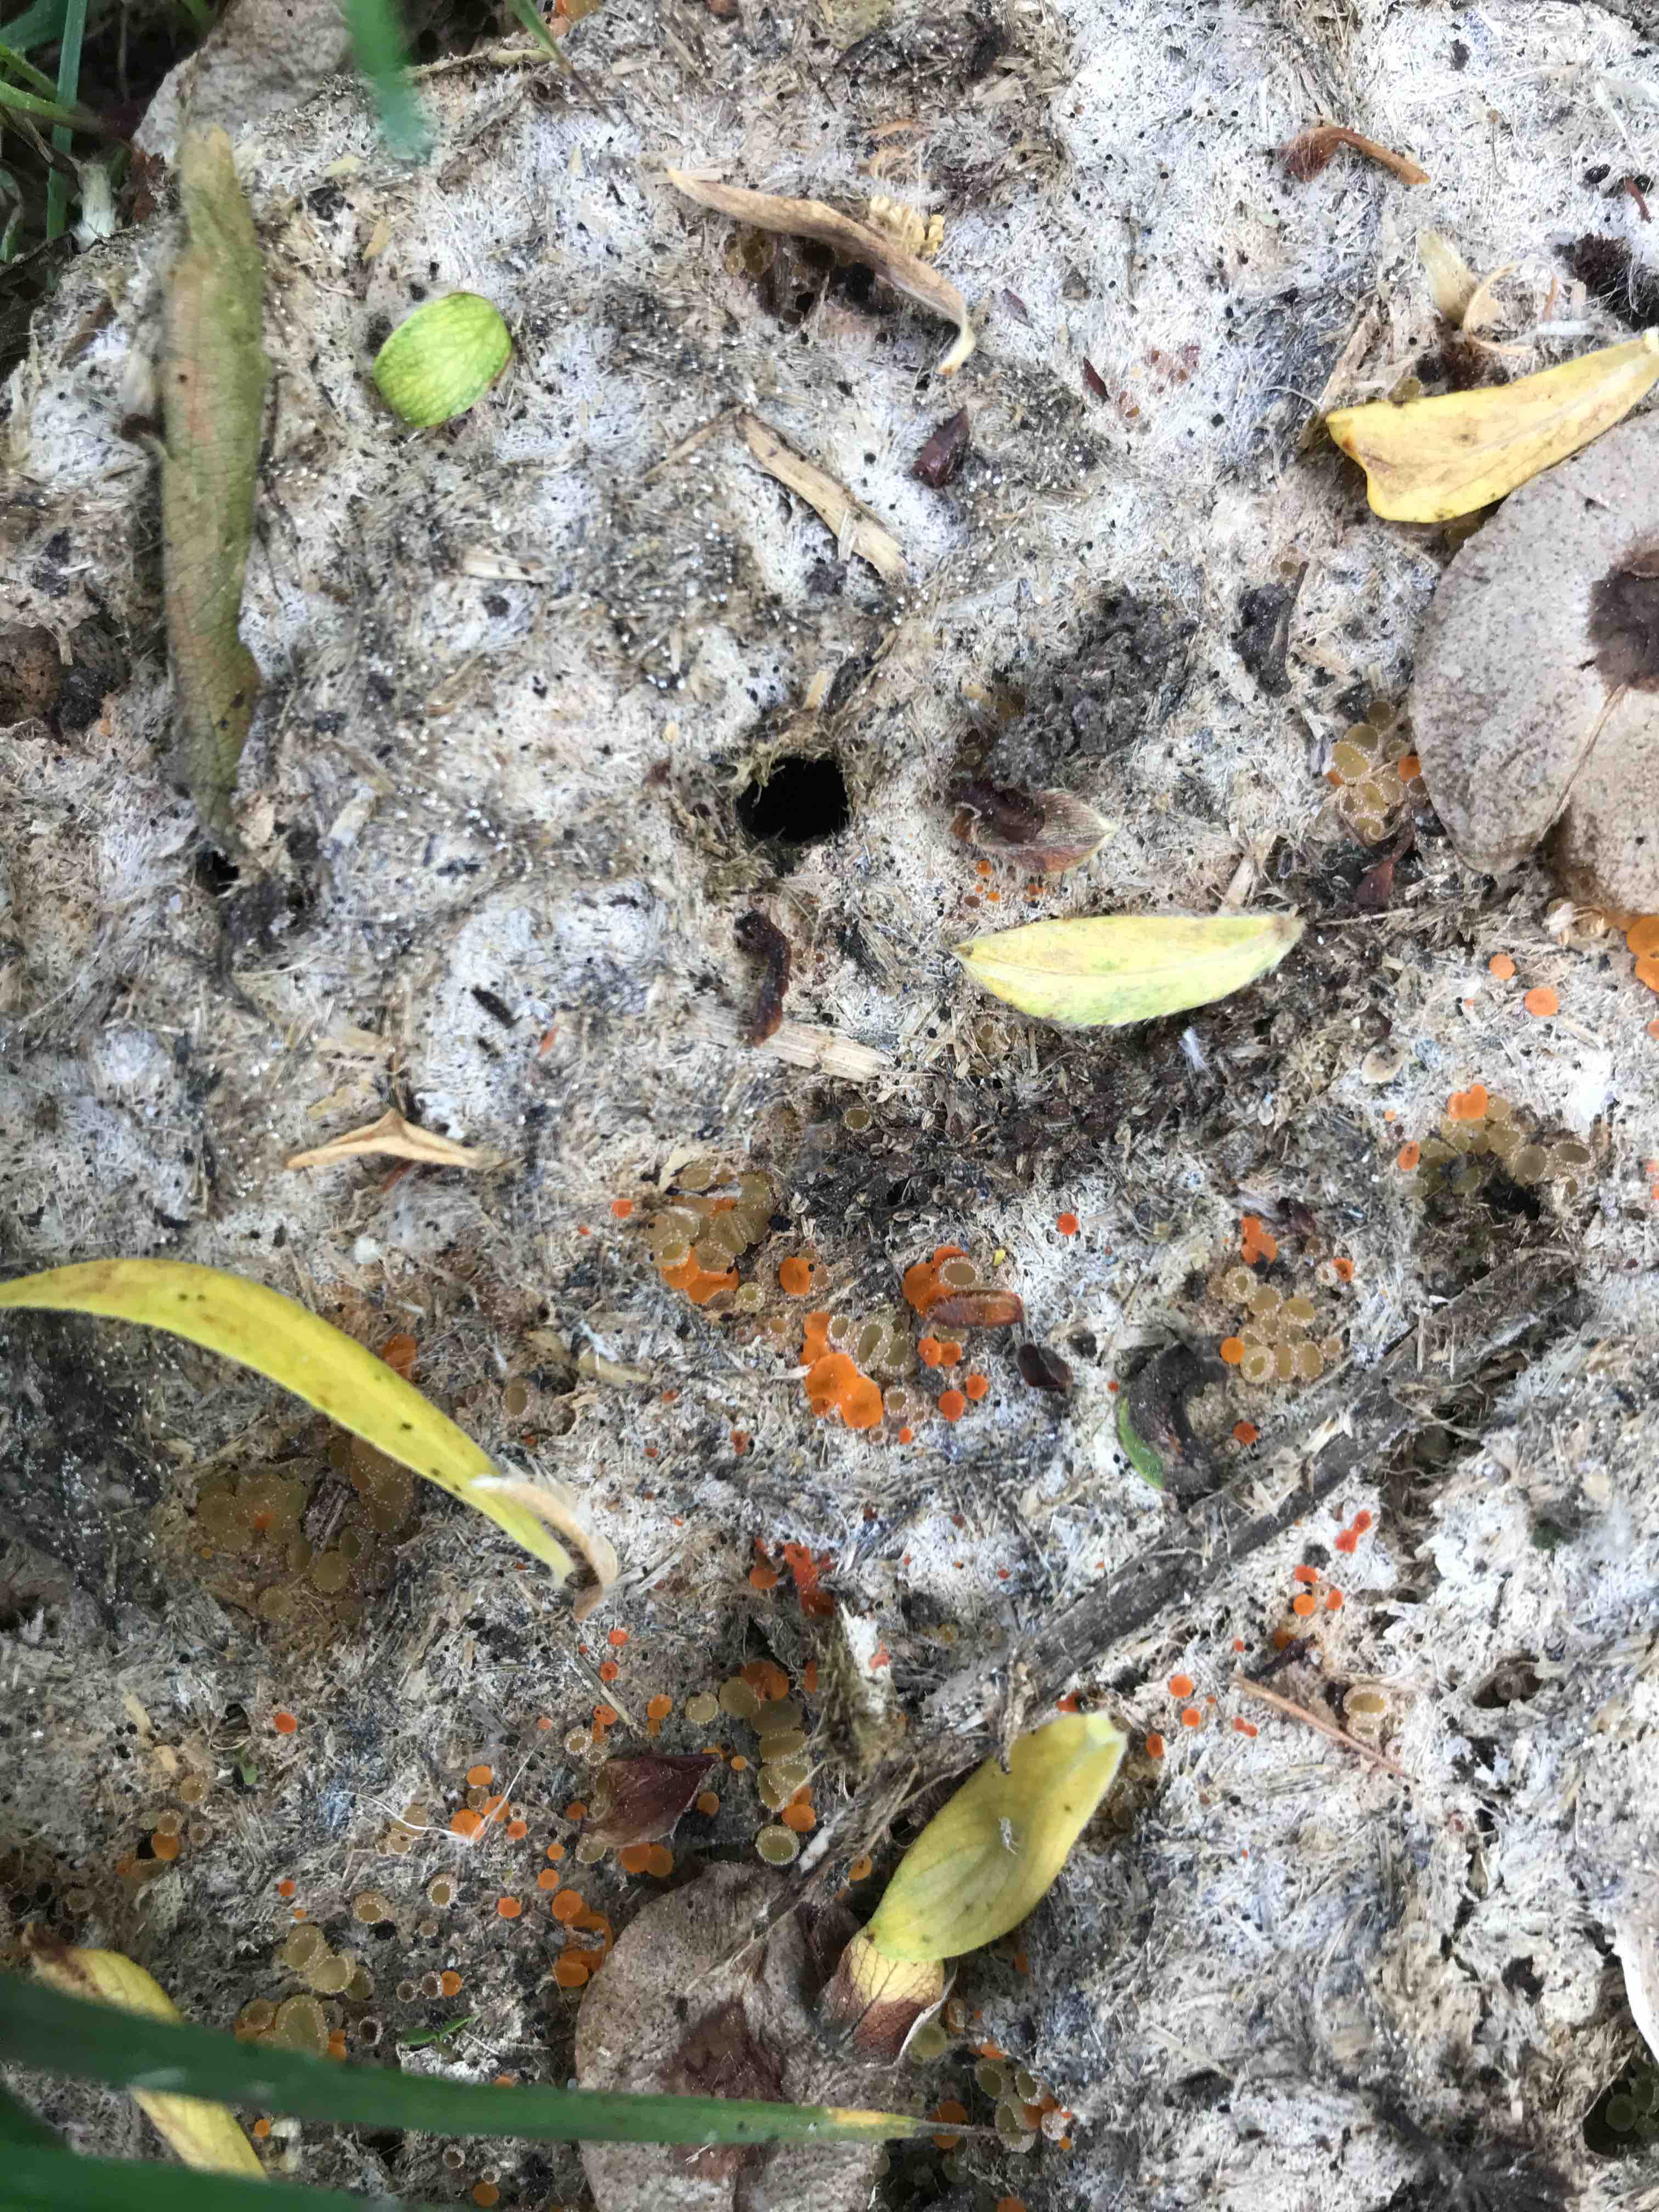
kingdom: Fungi
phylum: Ascomycota
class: Pezizomycetes
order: Pezizales
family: Pyronemataceae
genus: Cheilymenia
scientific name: Cheilymenia
